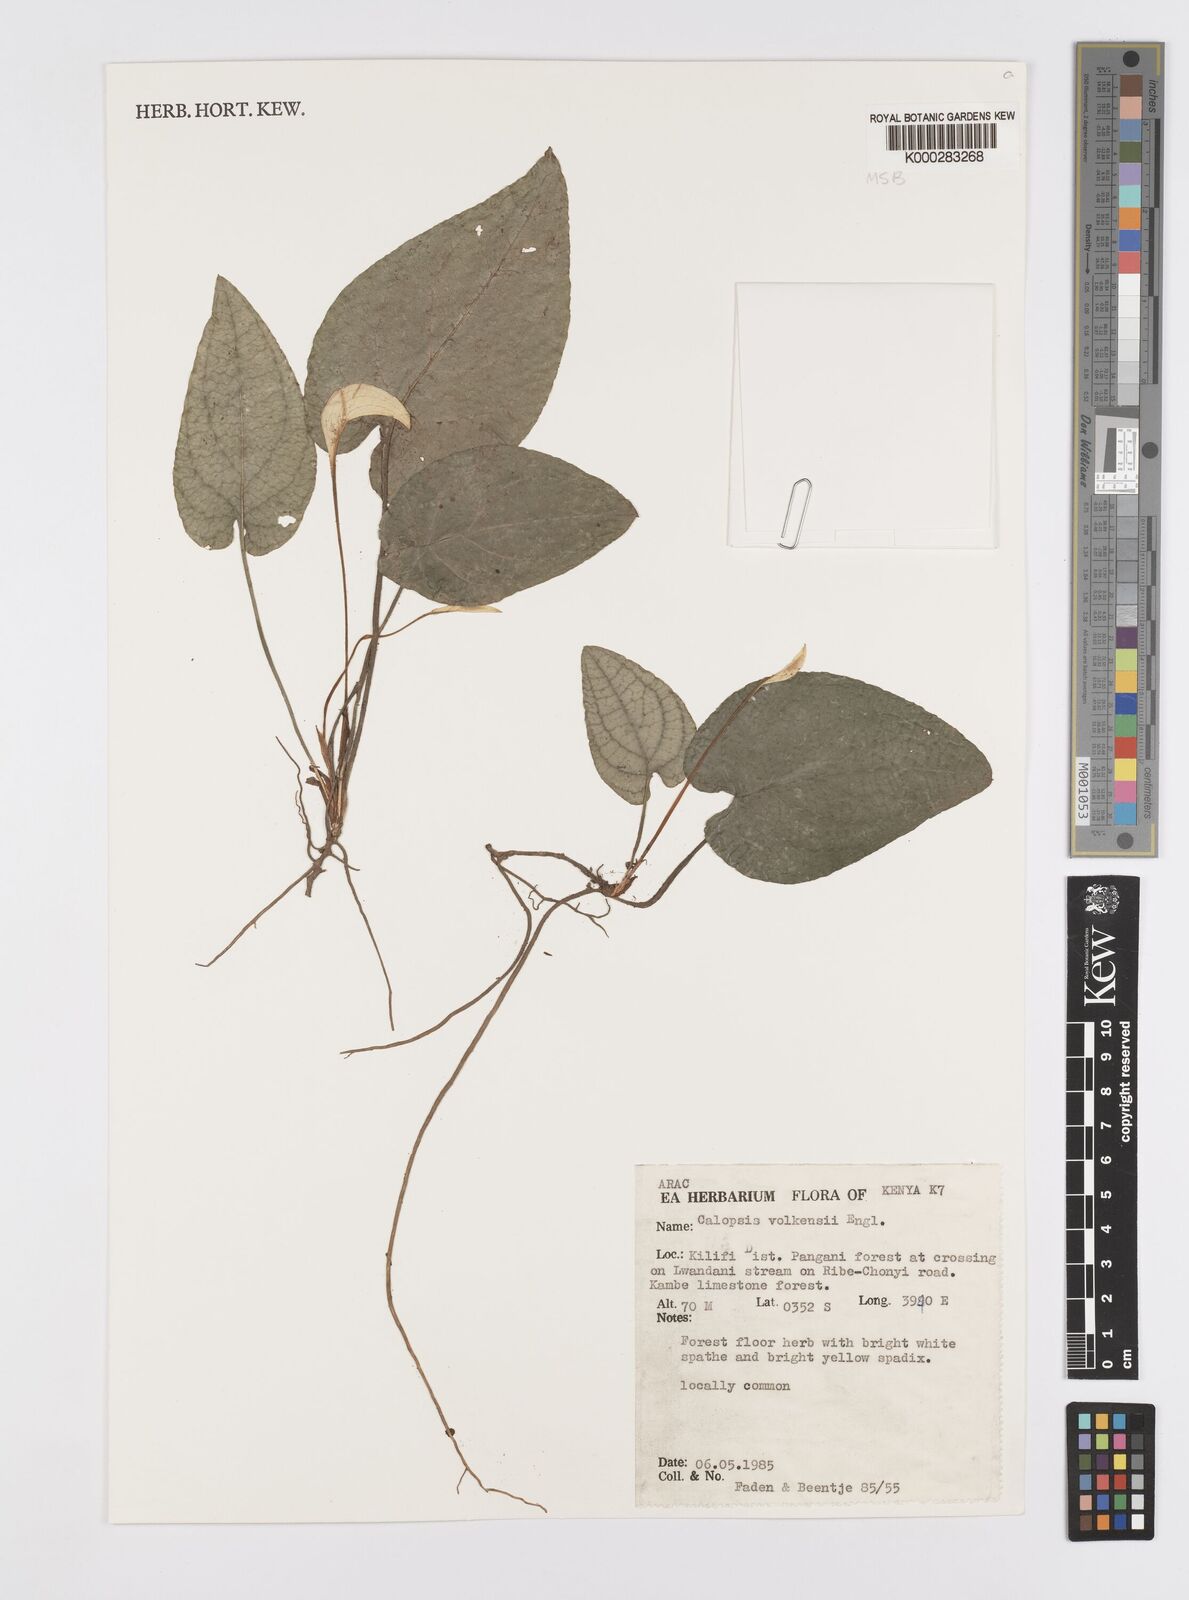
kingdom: Plantae
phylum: Tracheophyta
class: Liliopsida
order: Alismatales
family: Araceae
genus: Callopsis
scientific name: Callopsis volkensii
